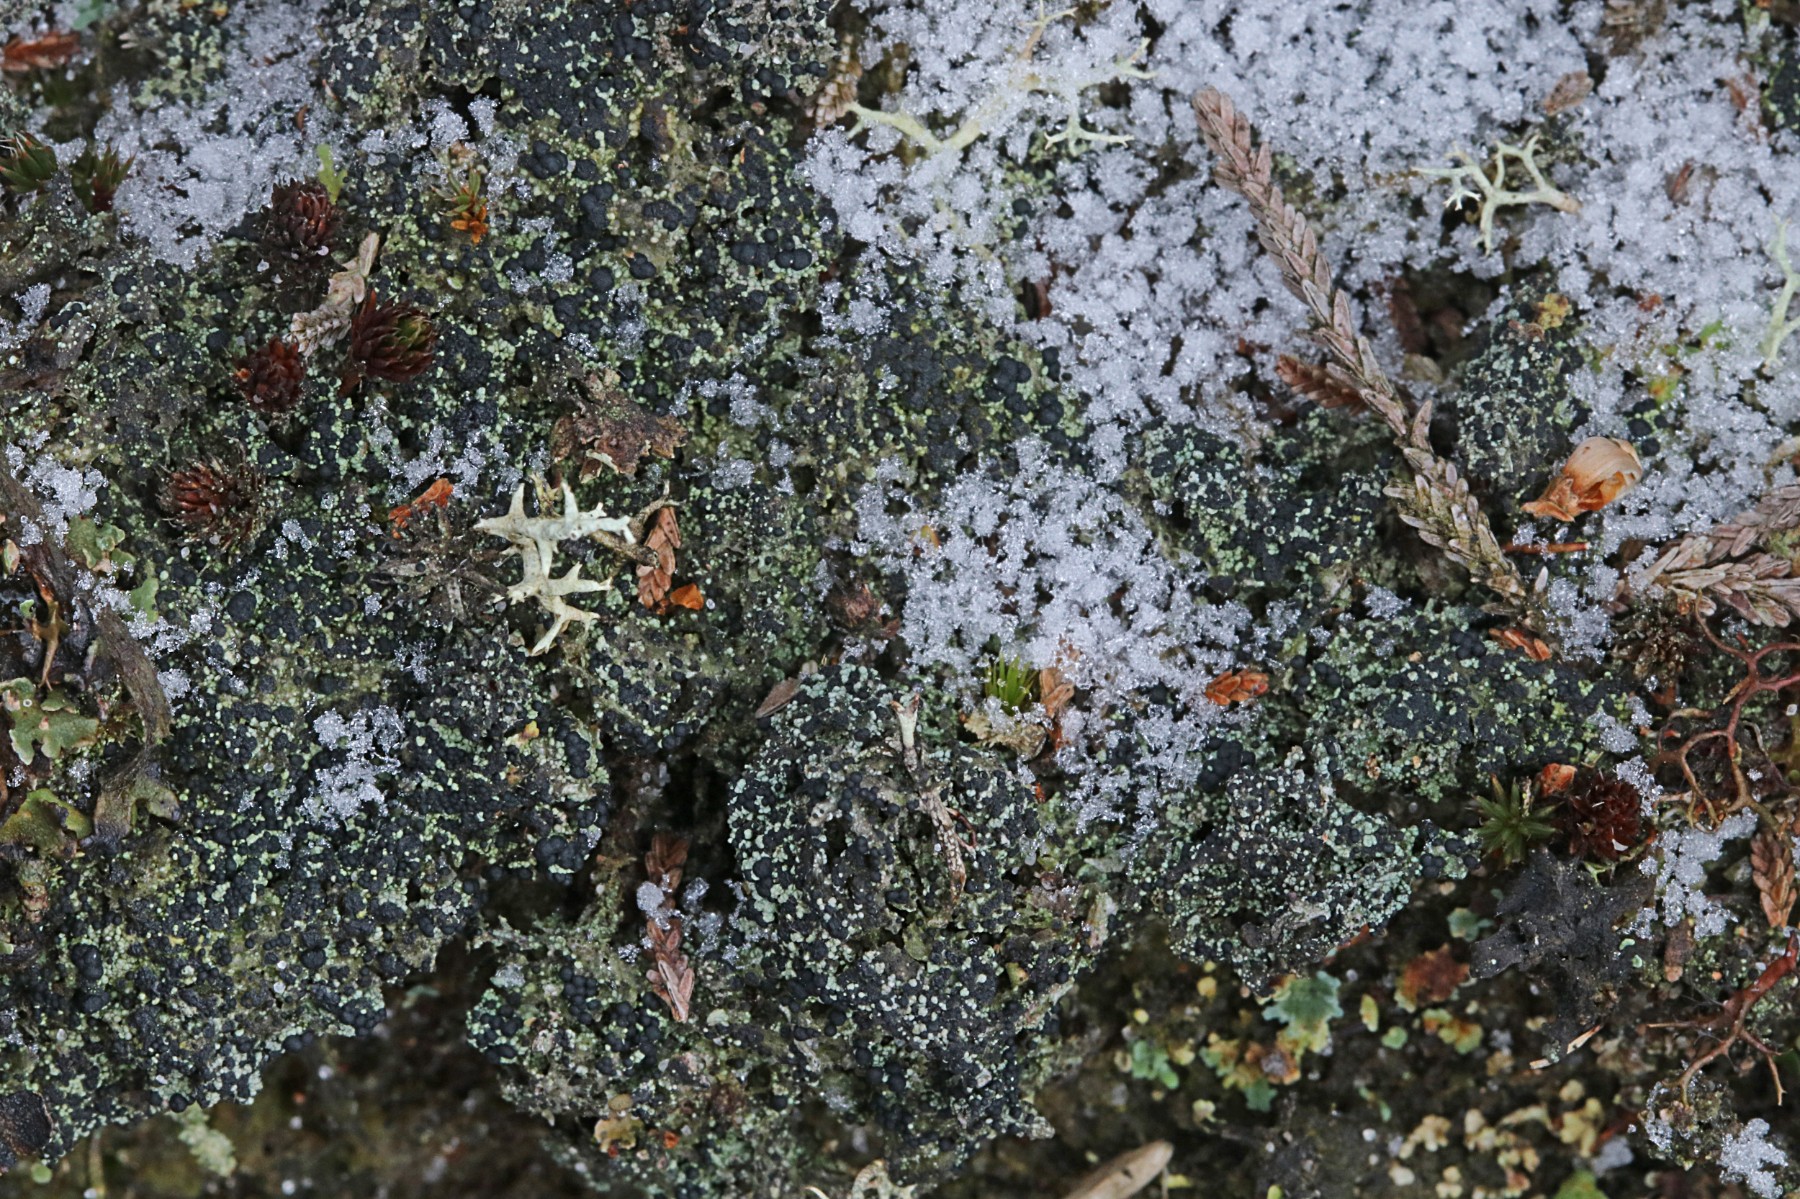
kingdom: Fungi
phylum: Ascomycota
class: Lecanoromycetes
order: Lecanorales
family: Byssolomataceae
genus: Micarea
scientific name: Micarea lignaria
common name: tørve-knaplav
